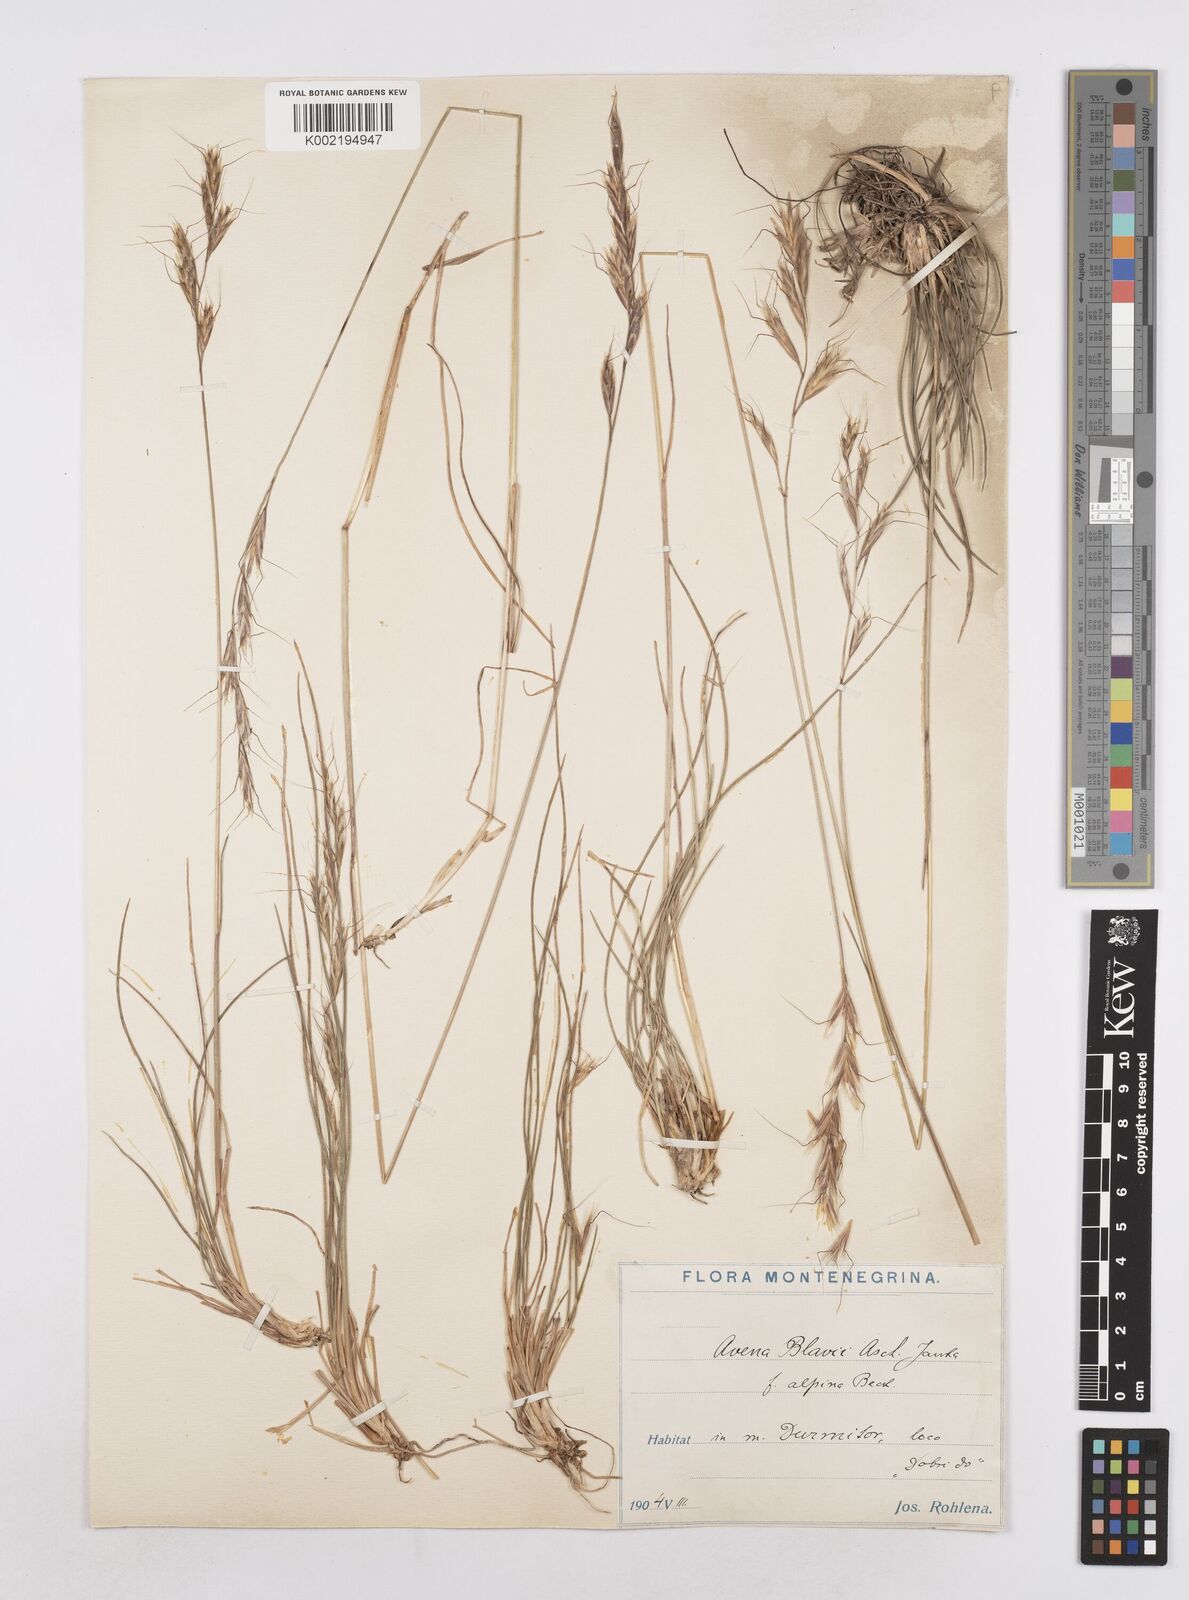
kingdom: Plantae
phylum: Tracheophyta
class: Liliopsida
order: Poales
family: Poaceae
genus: Helictochloa
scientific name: Helictochloa blaui
